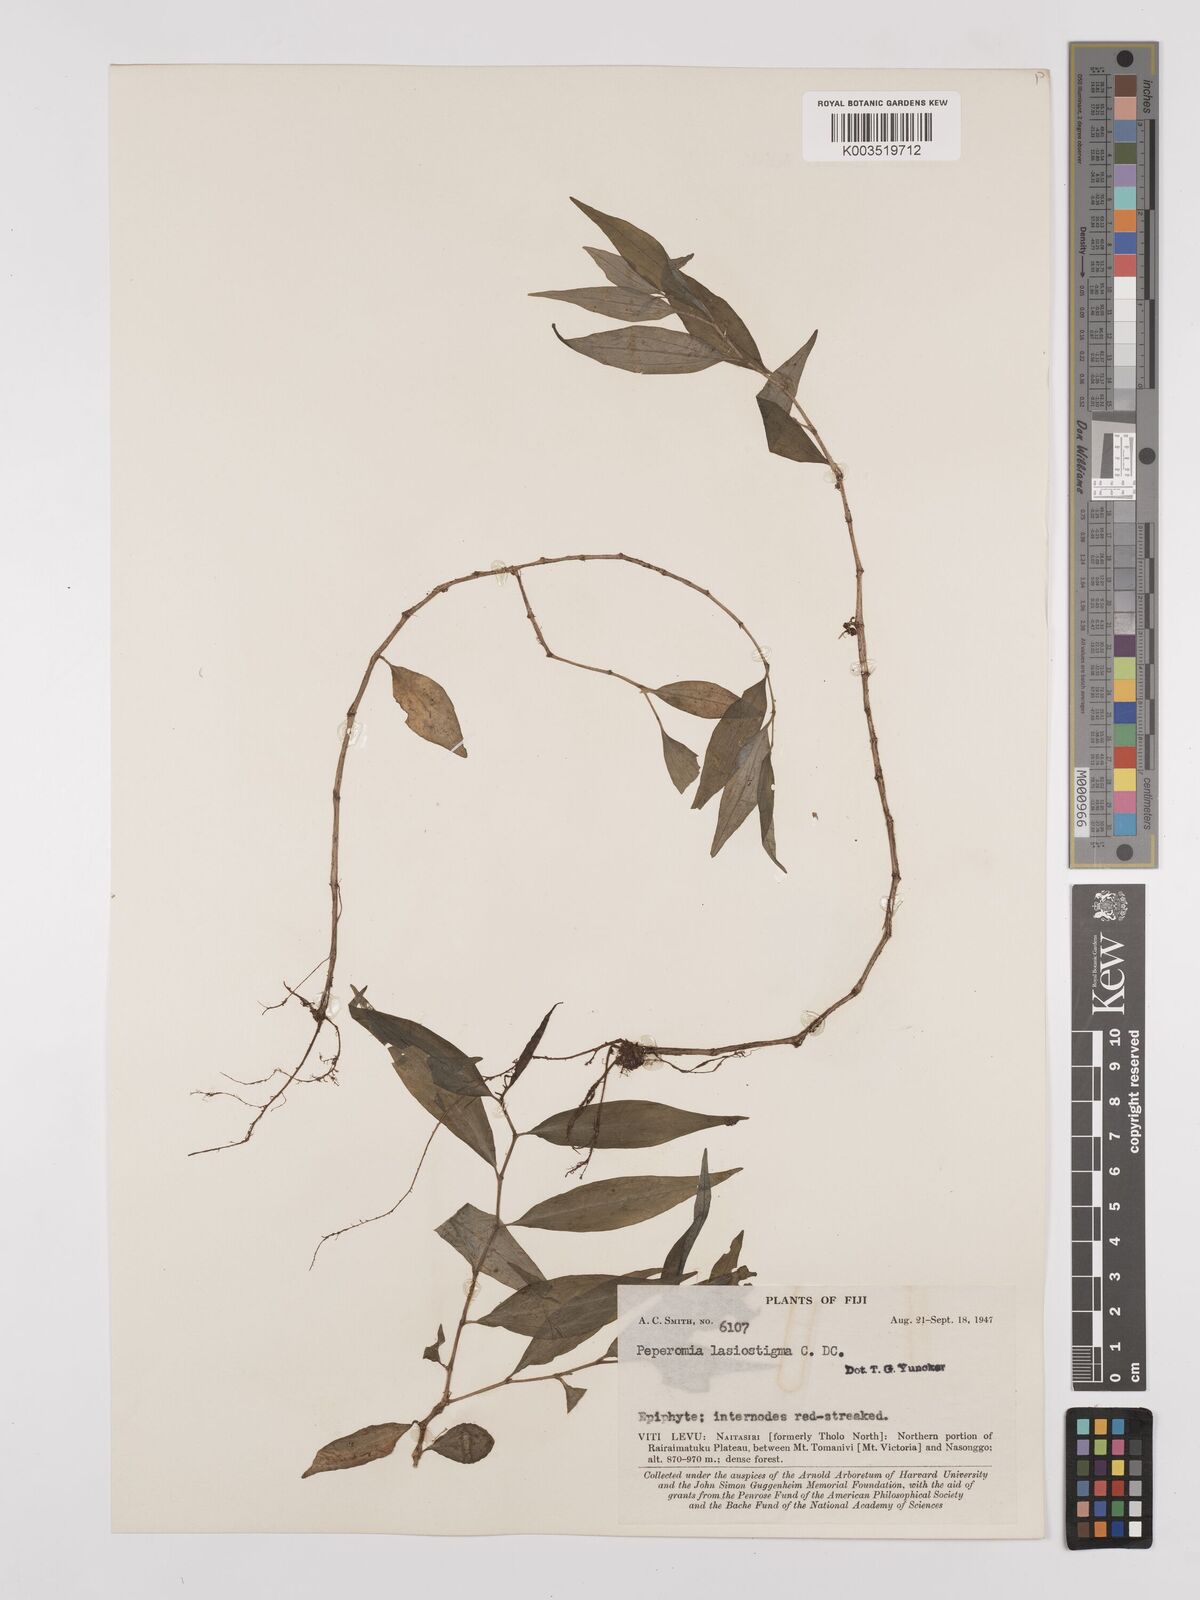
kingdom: Plantae
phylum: Tracheophyta
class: Magnoliopsida
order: Piperales
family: Piperaceae
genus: Peperomia
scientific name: Peperomia lasiostigma
